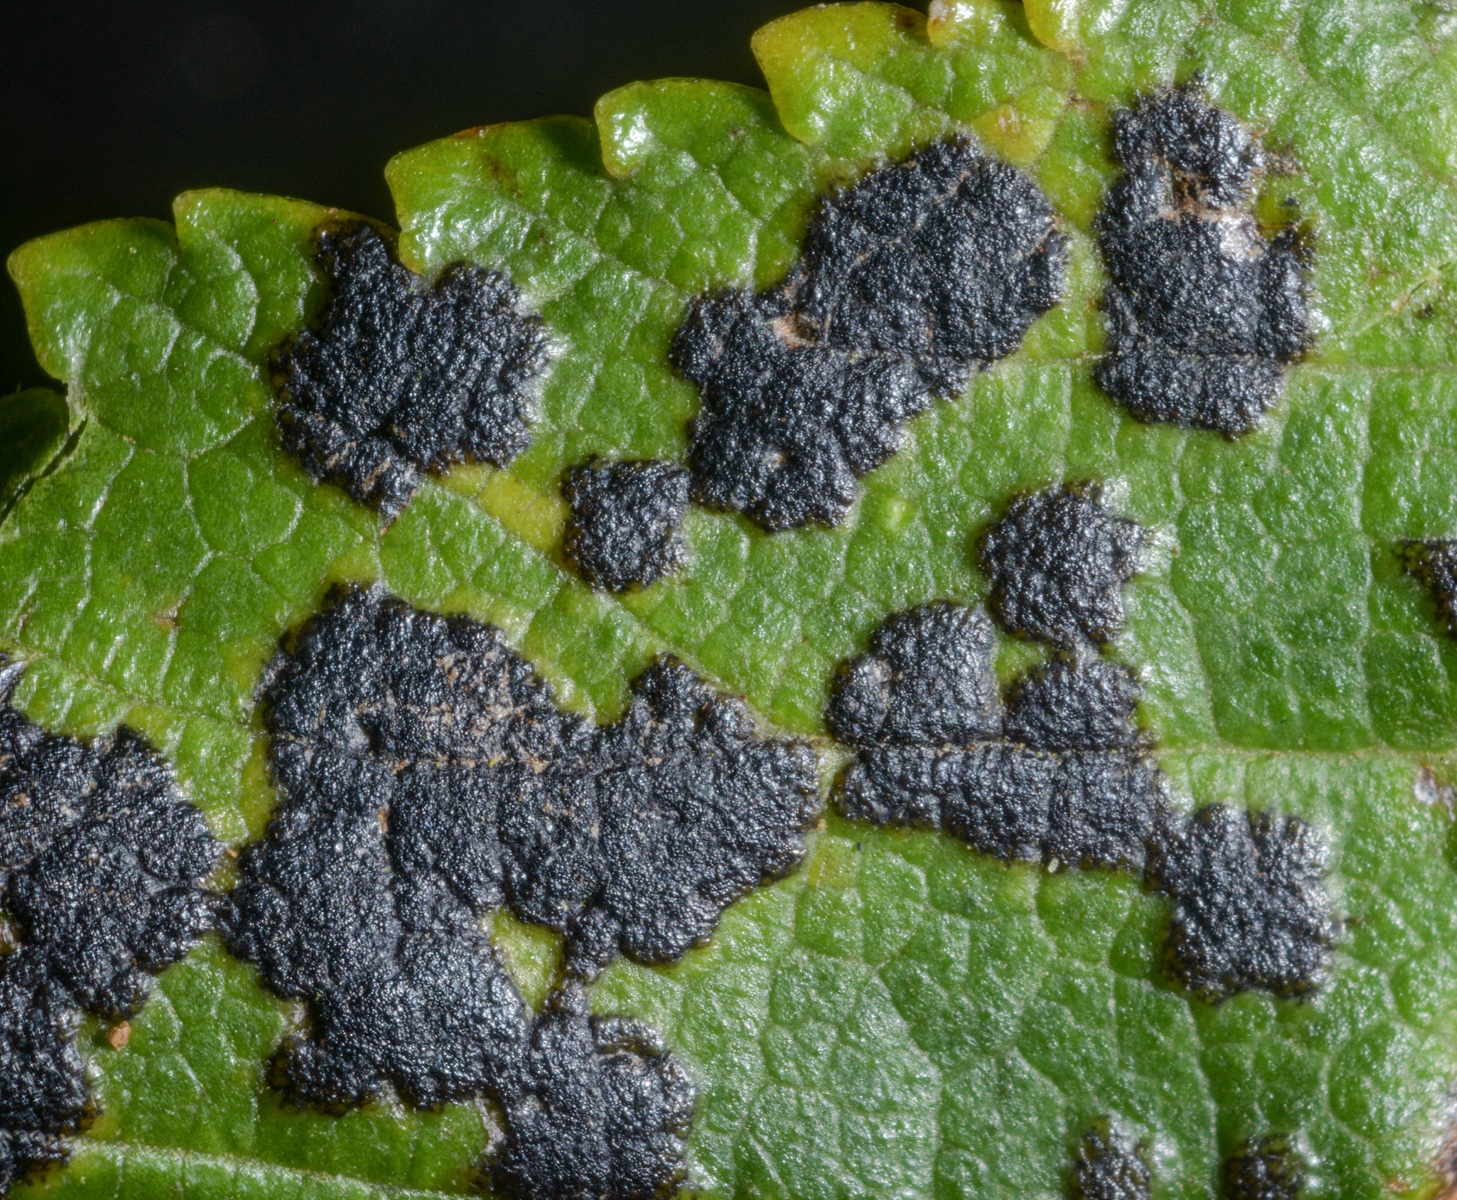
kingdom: Fungi
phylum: Ascomycota
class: Dothideomycetes
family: Polystomellaceae
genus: Dothidella
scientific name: Dothidella ulmi
